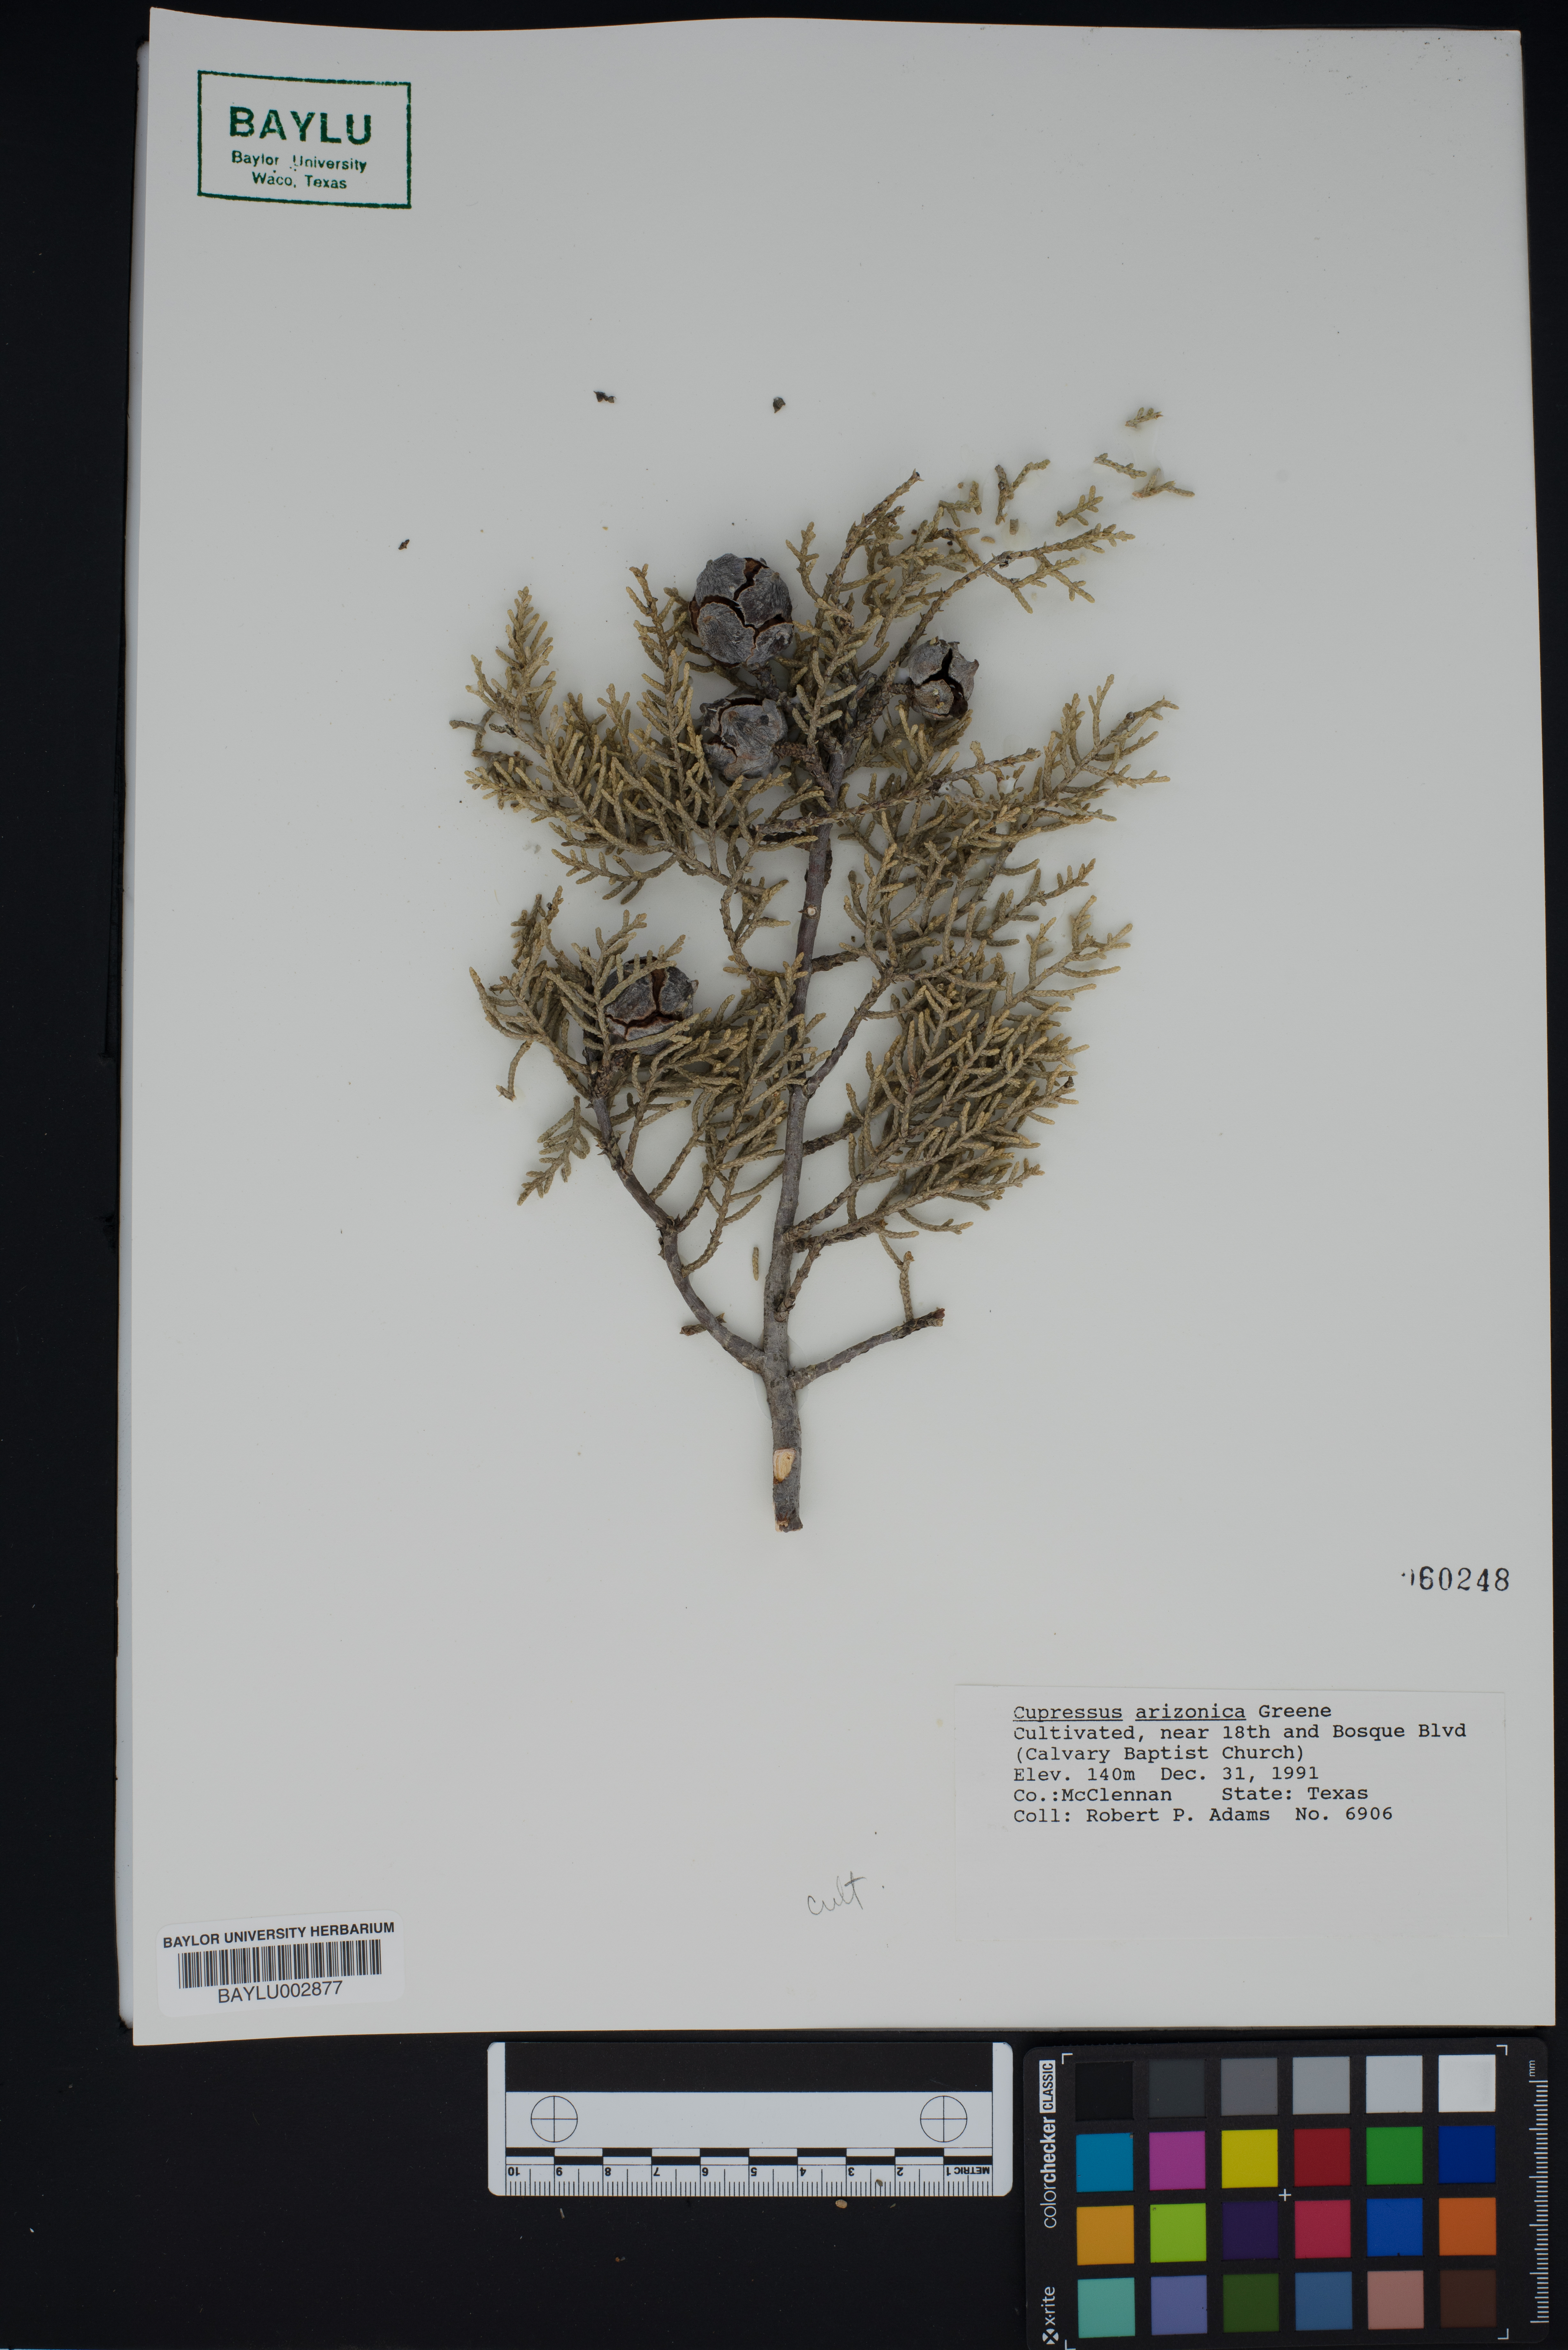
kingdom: Plantae
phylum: Tracheophyta
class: Pinopsida
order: Pinales
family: Cupressaceae
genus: Cupressus
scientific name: Cupressus arizonica
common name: Arizona cypress
